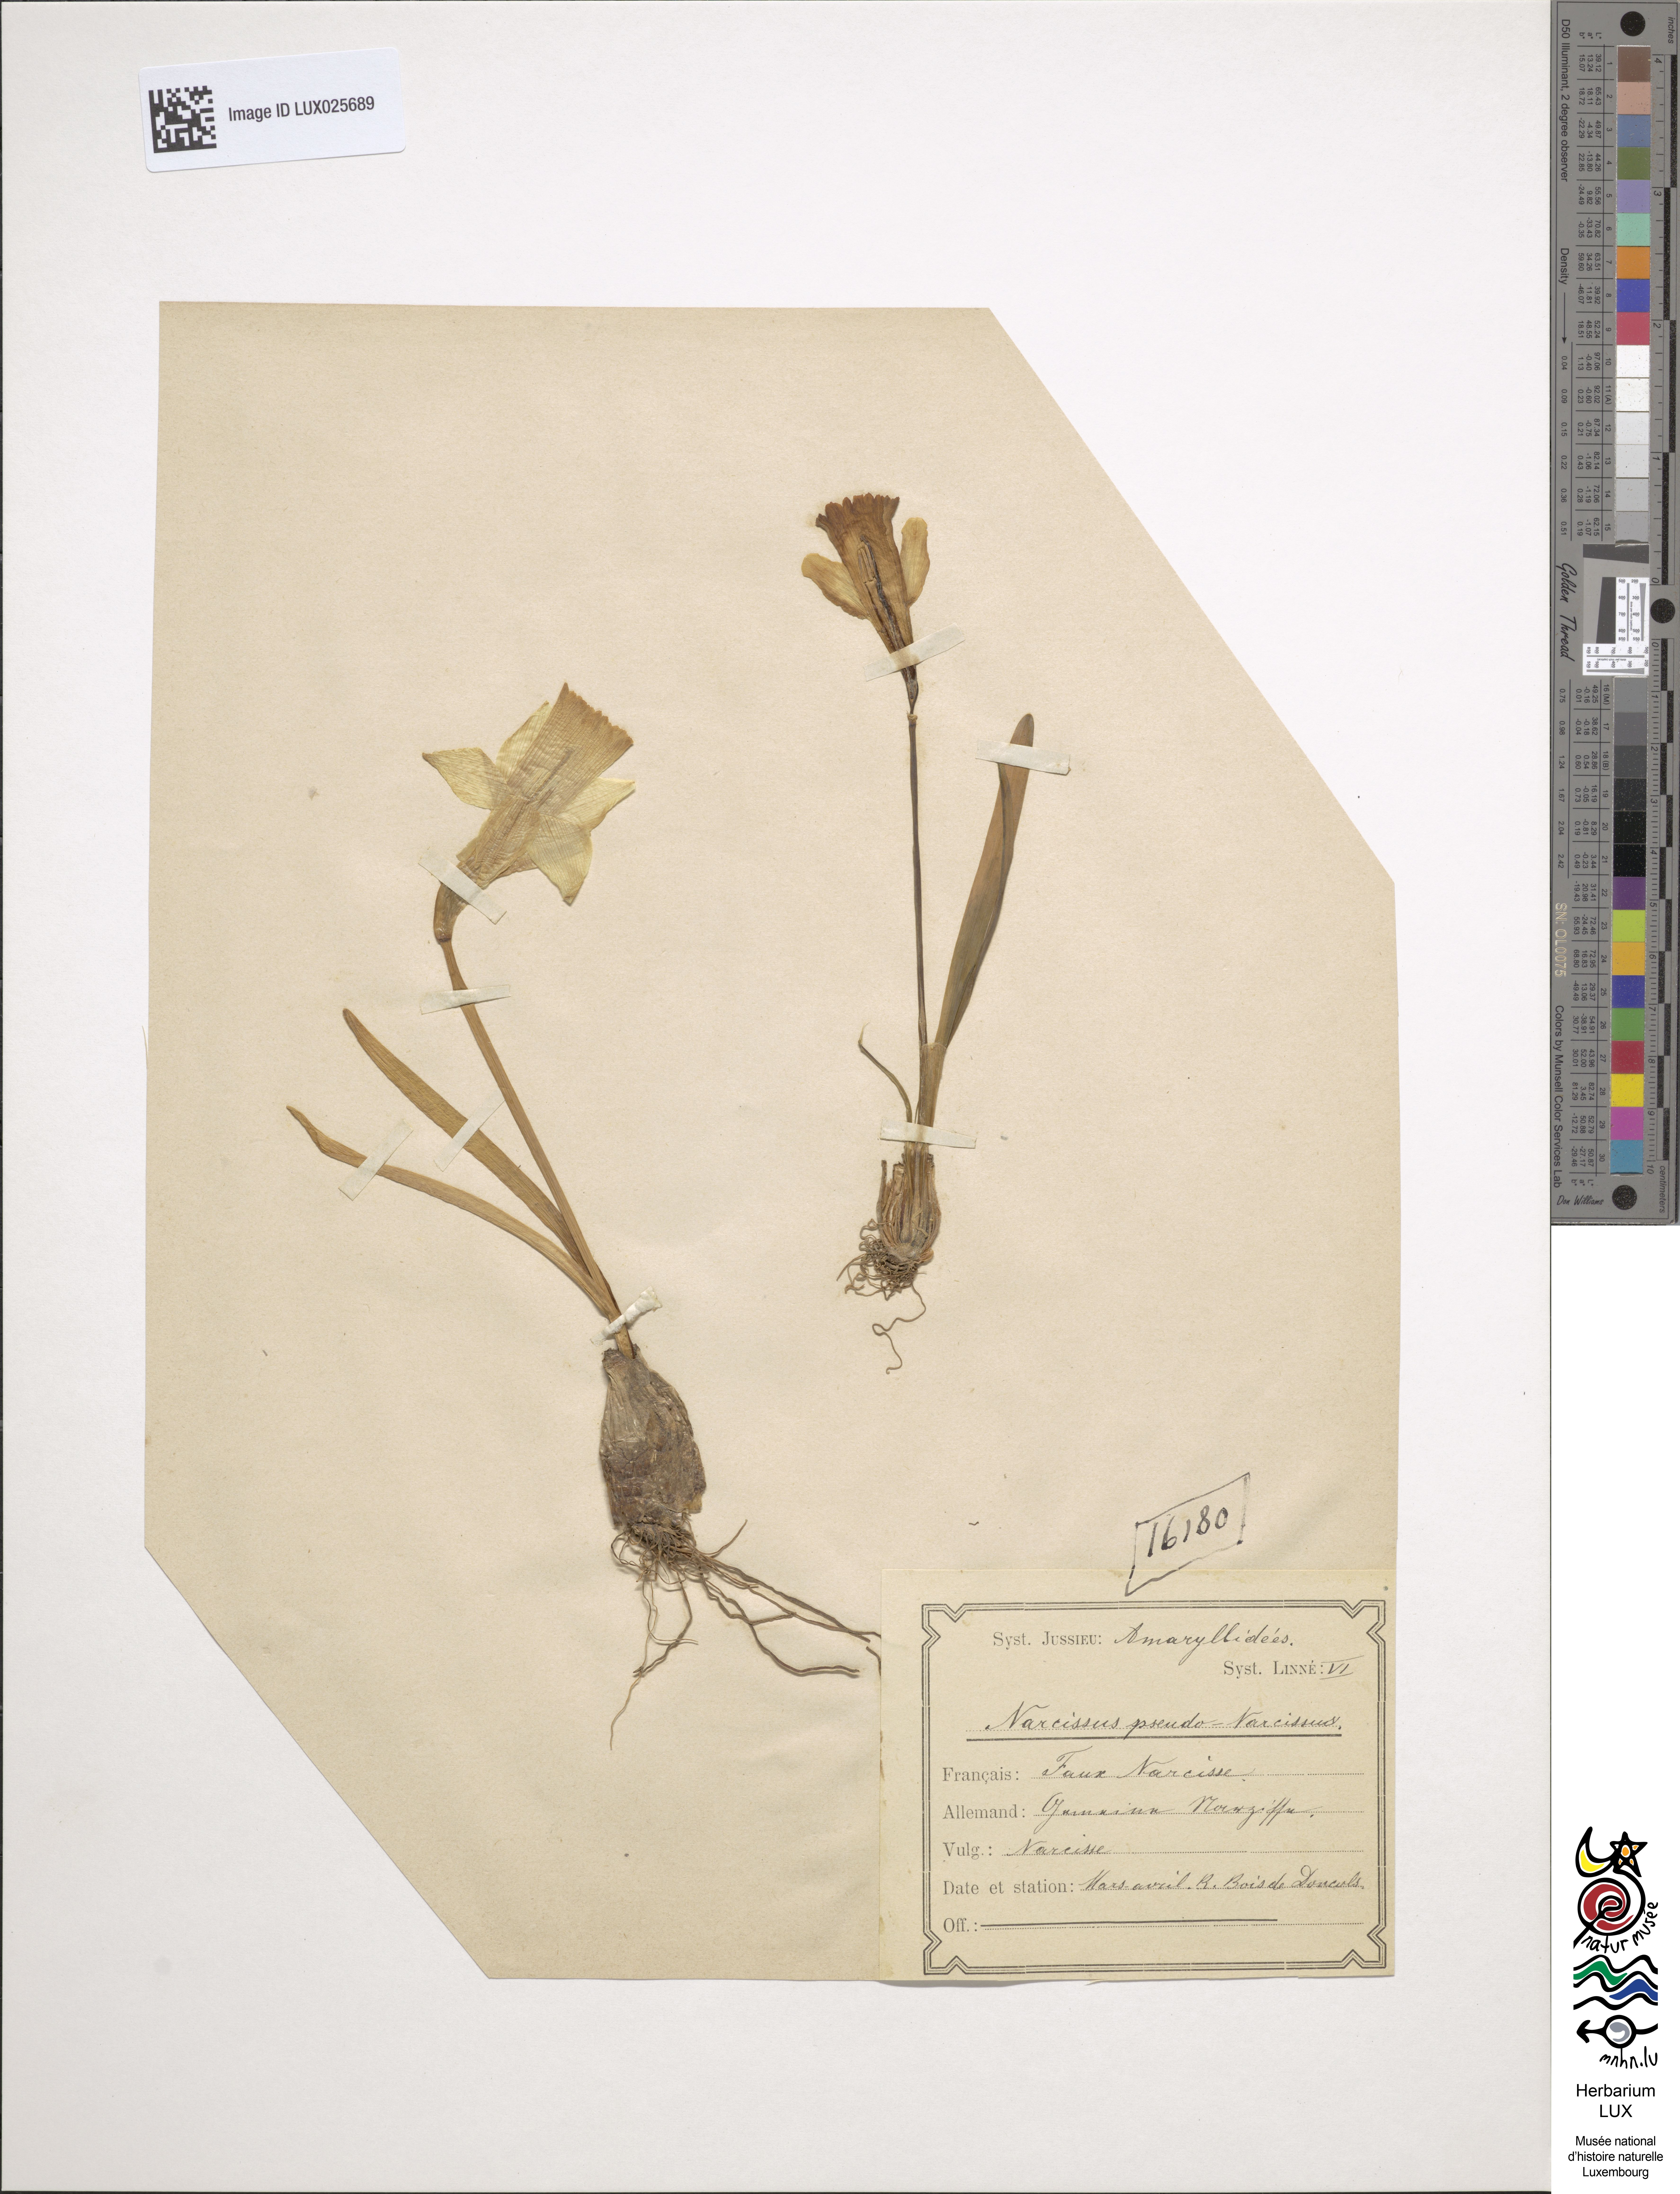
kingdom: Plantae
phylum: Tracheophyta
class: Liliopsida
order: Asparagales
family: Amaryllidaceae
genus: Narcissus
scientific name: Narcissus pseudonarcissus
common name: Daffodil
